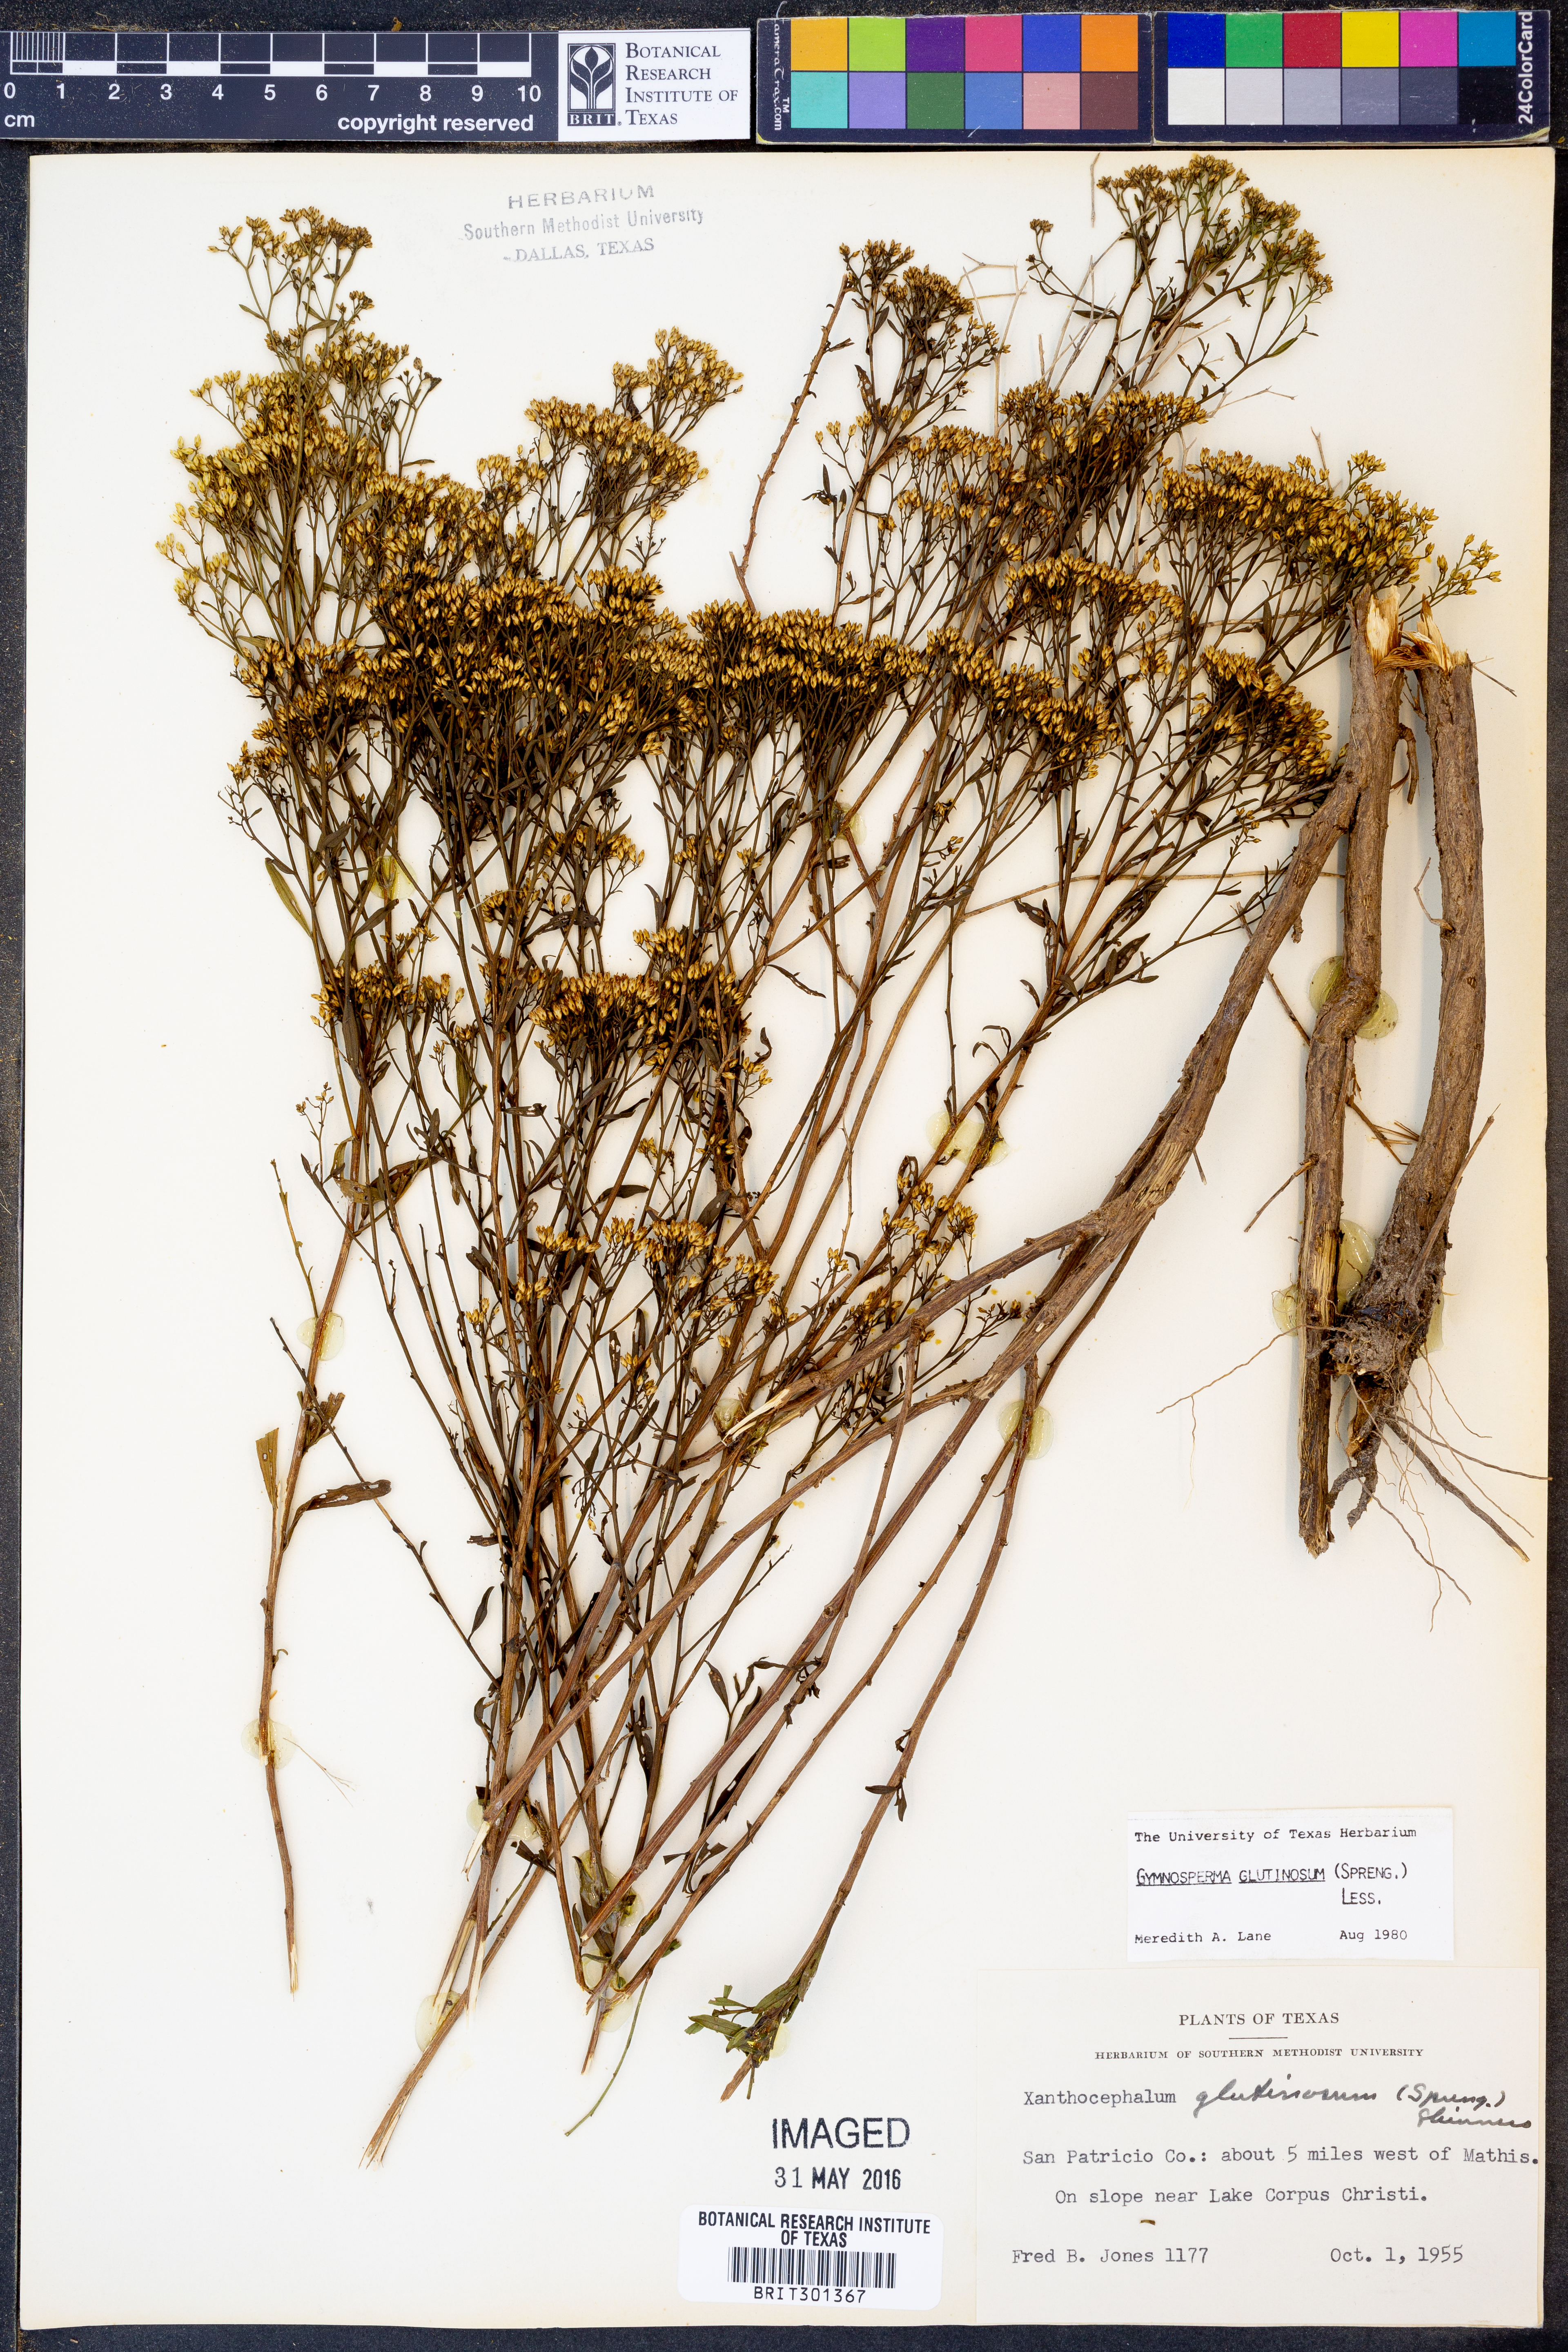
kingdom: Plantae
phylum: Tracheophyta
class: Magnoliopsida
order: Asterales
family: Asteraceae
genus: Gymnosperma
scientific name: Gymnosperma glutinosum
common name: Gumhead
